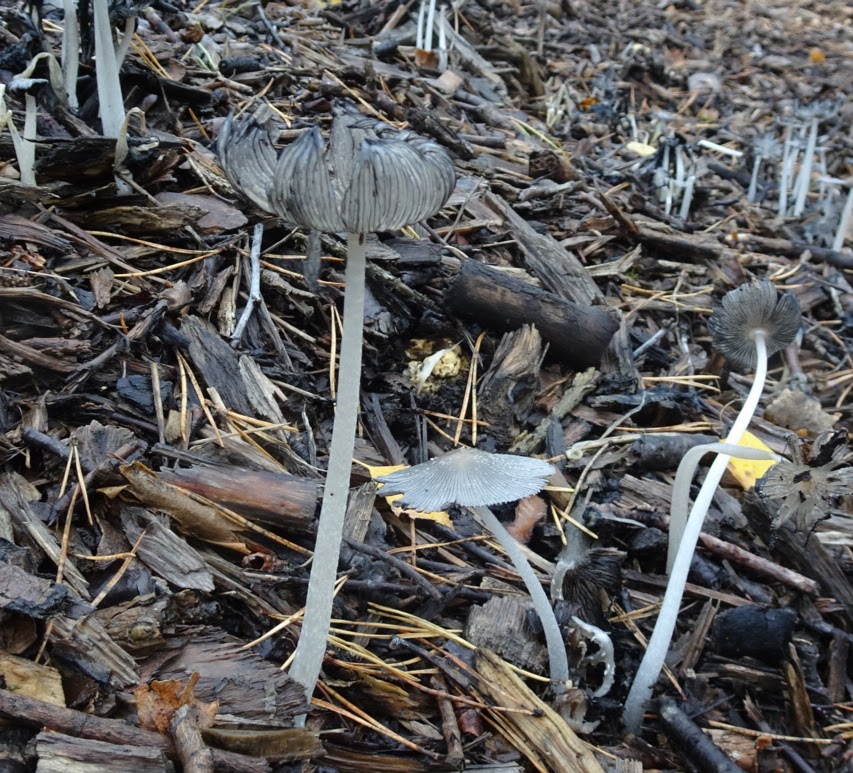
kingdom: Fungi
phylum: Basidiomycota
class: Agaricomycetes
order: Agaricales
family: Psathyrellaceae
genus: Coprinopsis
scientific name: Coprinopsis lagopus
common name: dunstokket blækhat
